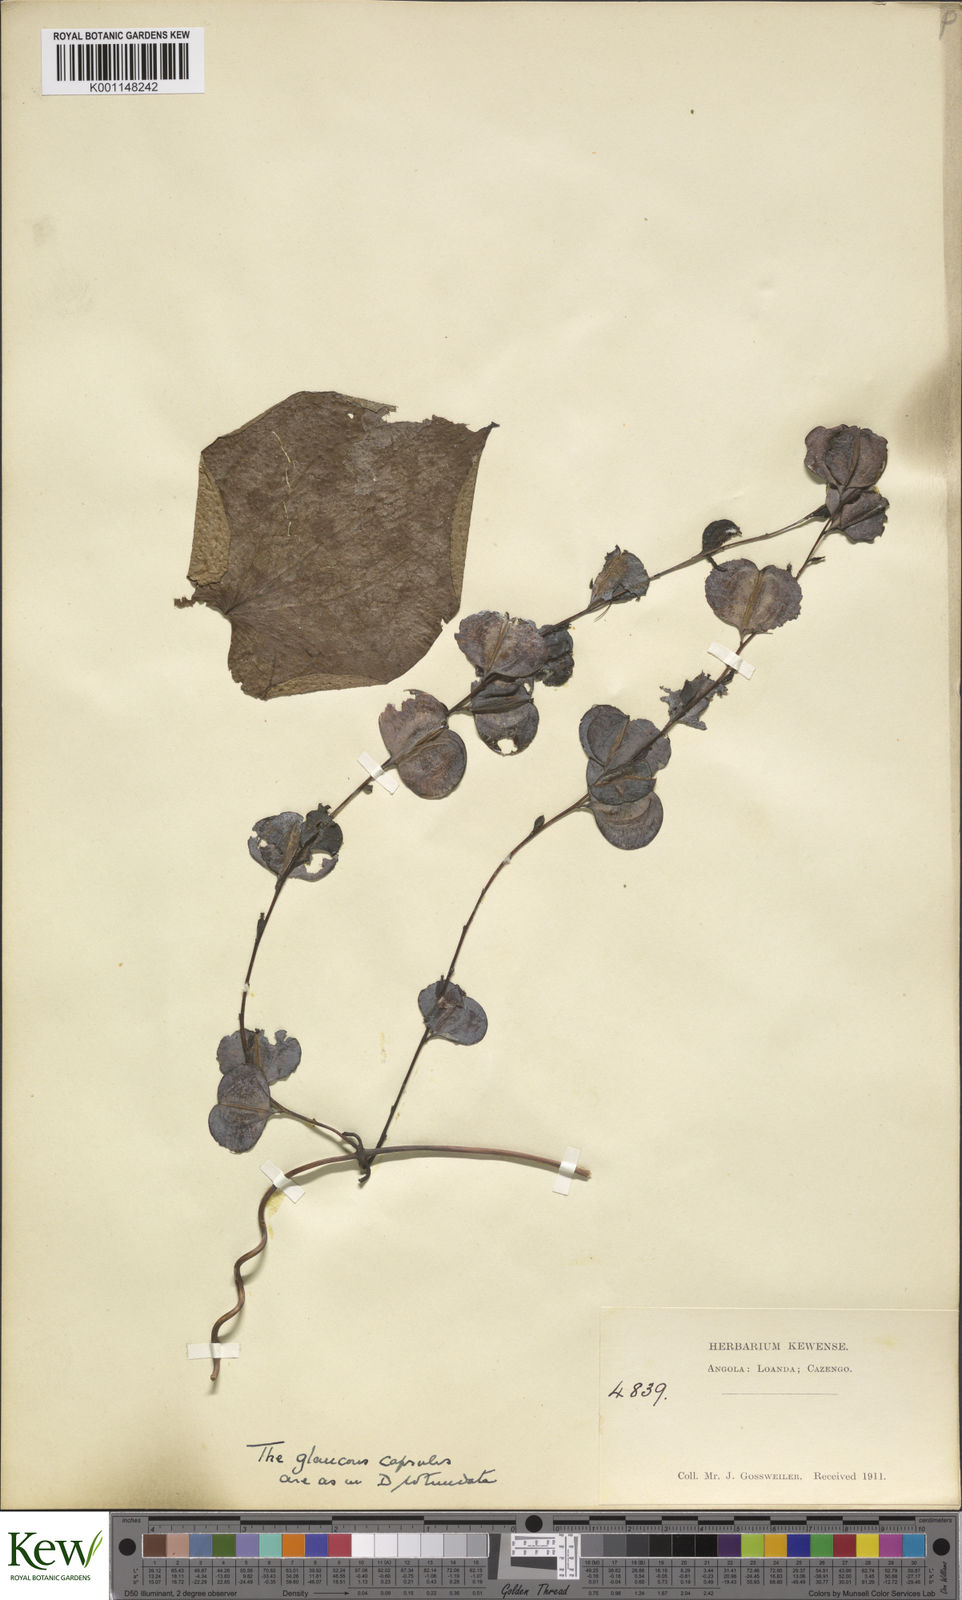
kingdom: Plantae
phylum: Tracheophyta
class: Liliopsida
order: Dioscoreales
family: Dioscoreaceae
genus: Dioscorea
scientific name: Dioscorea cayenensis
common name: Attoto yam
